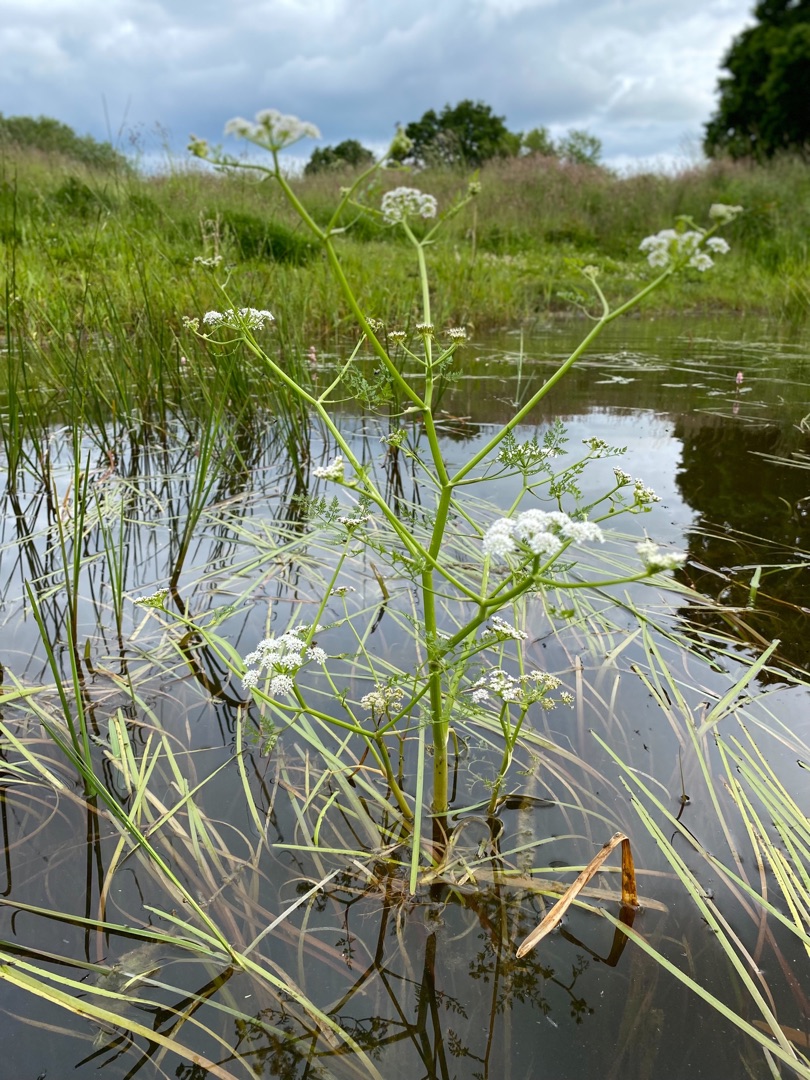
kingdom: Plantae
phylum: Tracheophyta
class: Magnoliopsida
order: Apiales
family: Apiaceae
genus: Oenanthe
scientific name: Oenanthe aquatica
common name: Billebo-klaseskærm
